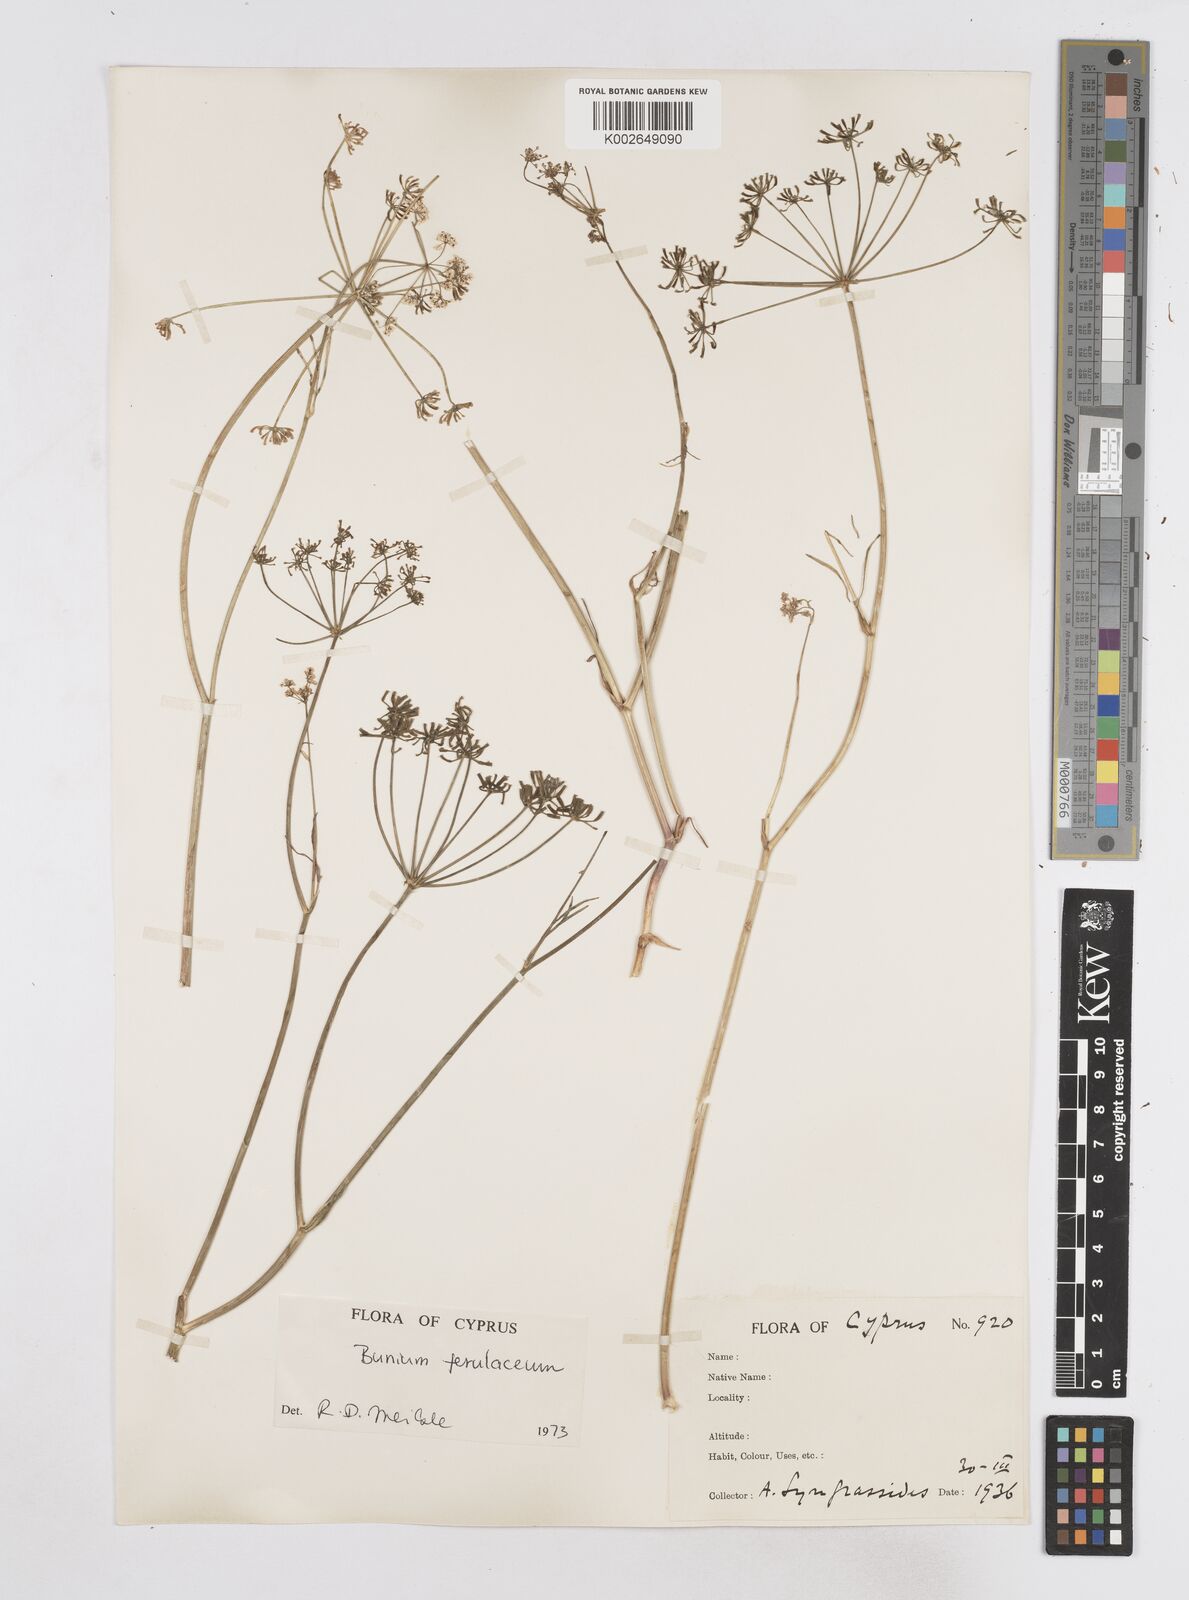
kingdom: Plantae
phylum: Tracheophyta
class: Magnoliopsida
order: Apiales
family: Apiaceae
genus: Bunium
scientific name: Bunium ferulaceum
